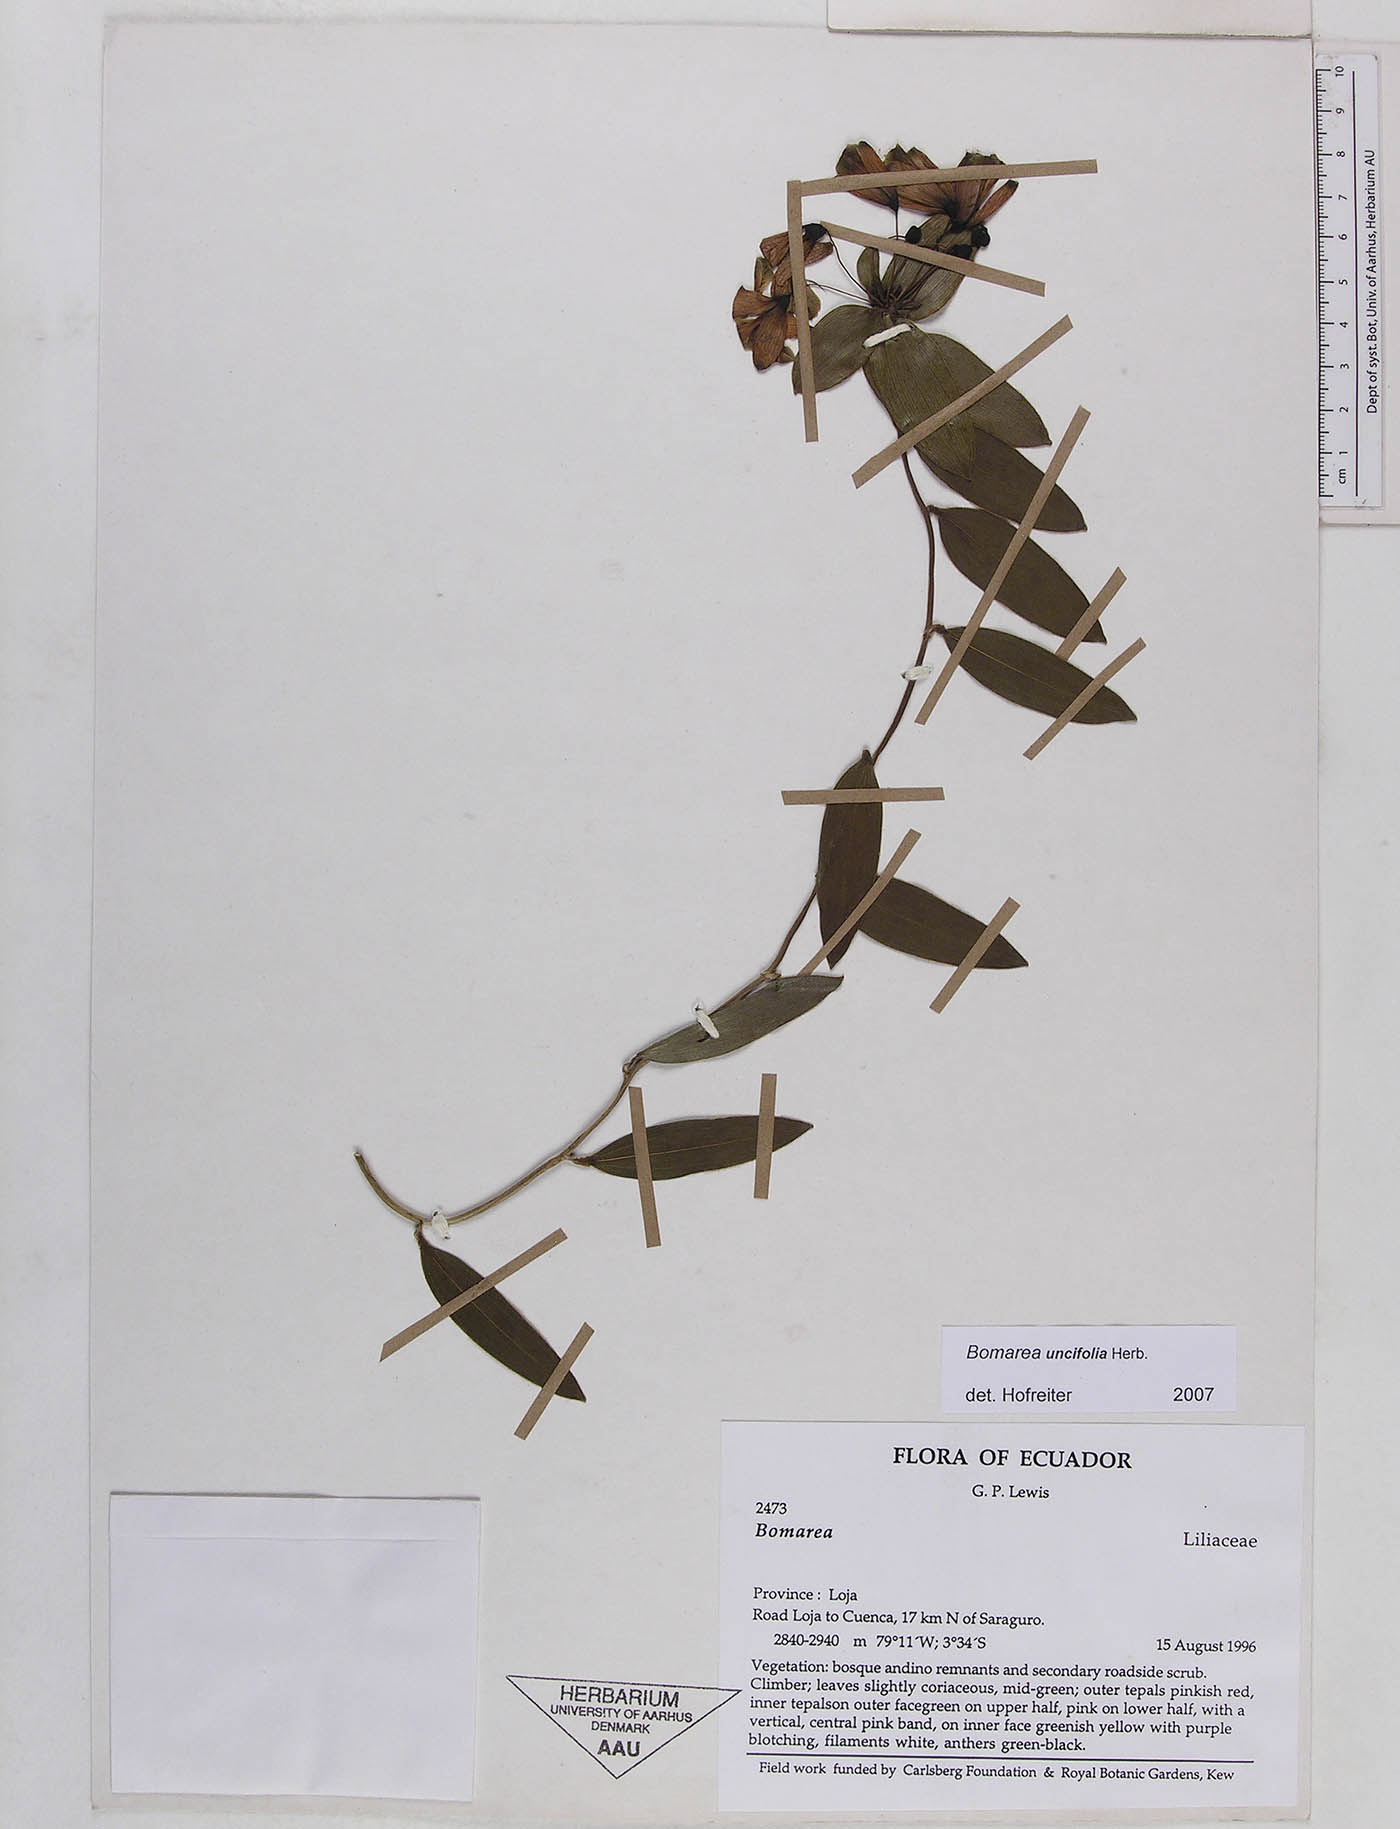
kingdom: Plantae
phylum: Tracheophyta
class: Liliopsida
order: Liliales
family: Alstroemeriaceae
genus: Bomarea
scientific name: Bomarea uncifolia
